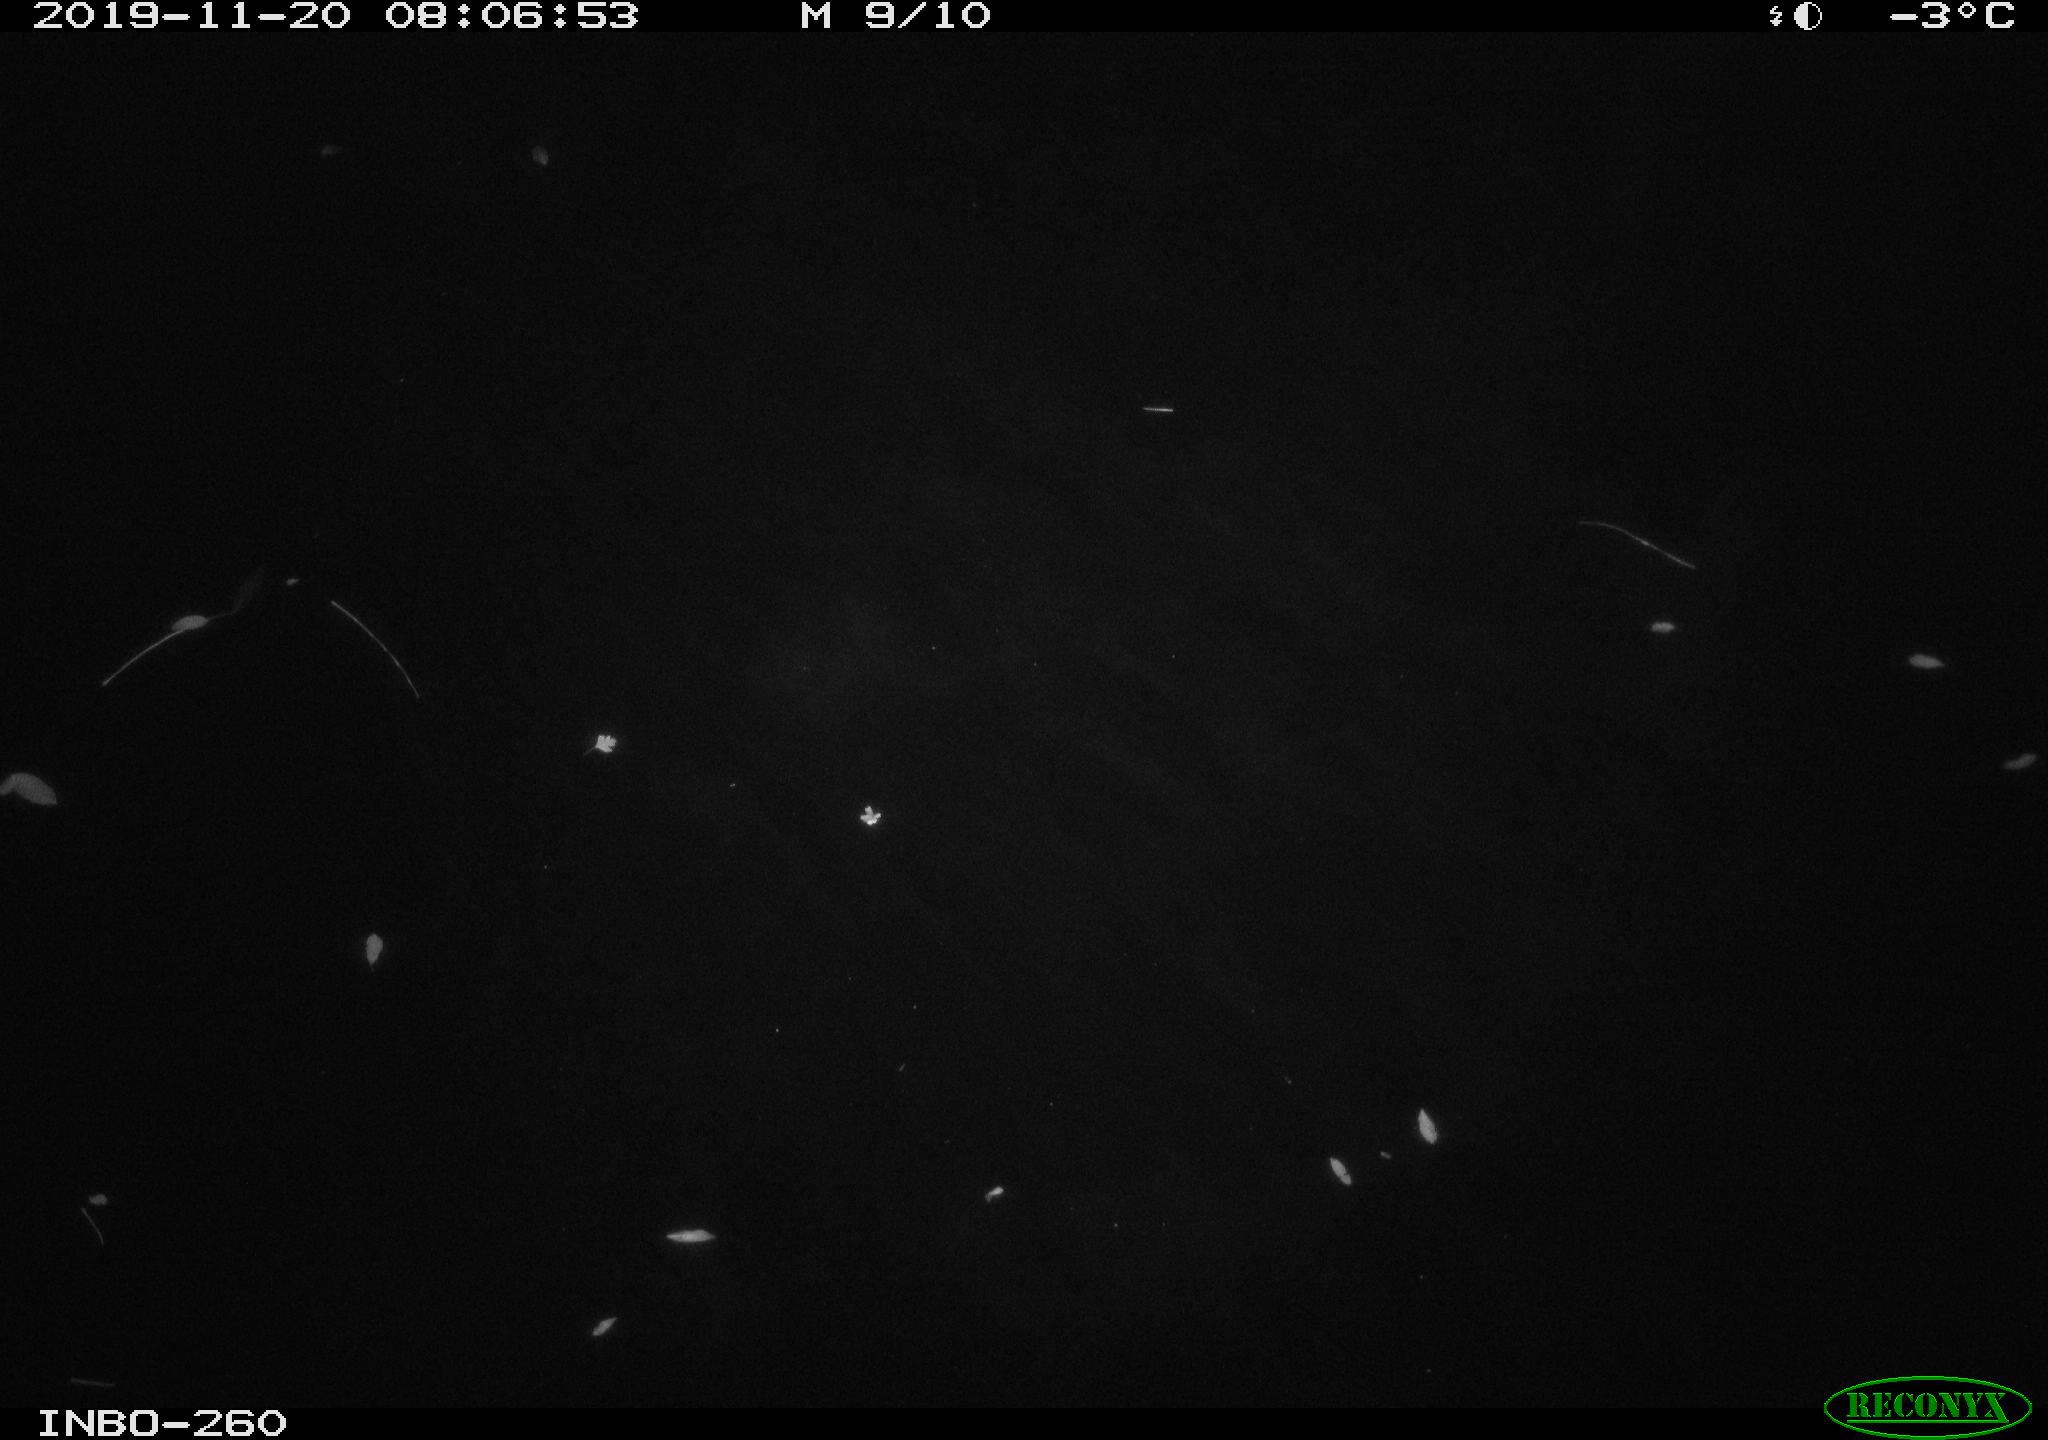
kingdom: Animalia
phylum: Chordata
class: Aves
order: Anseriformes
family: Anatidae
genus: Anas
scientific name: Anas platyrhynchos
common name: Mallard
